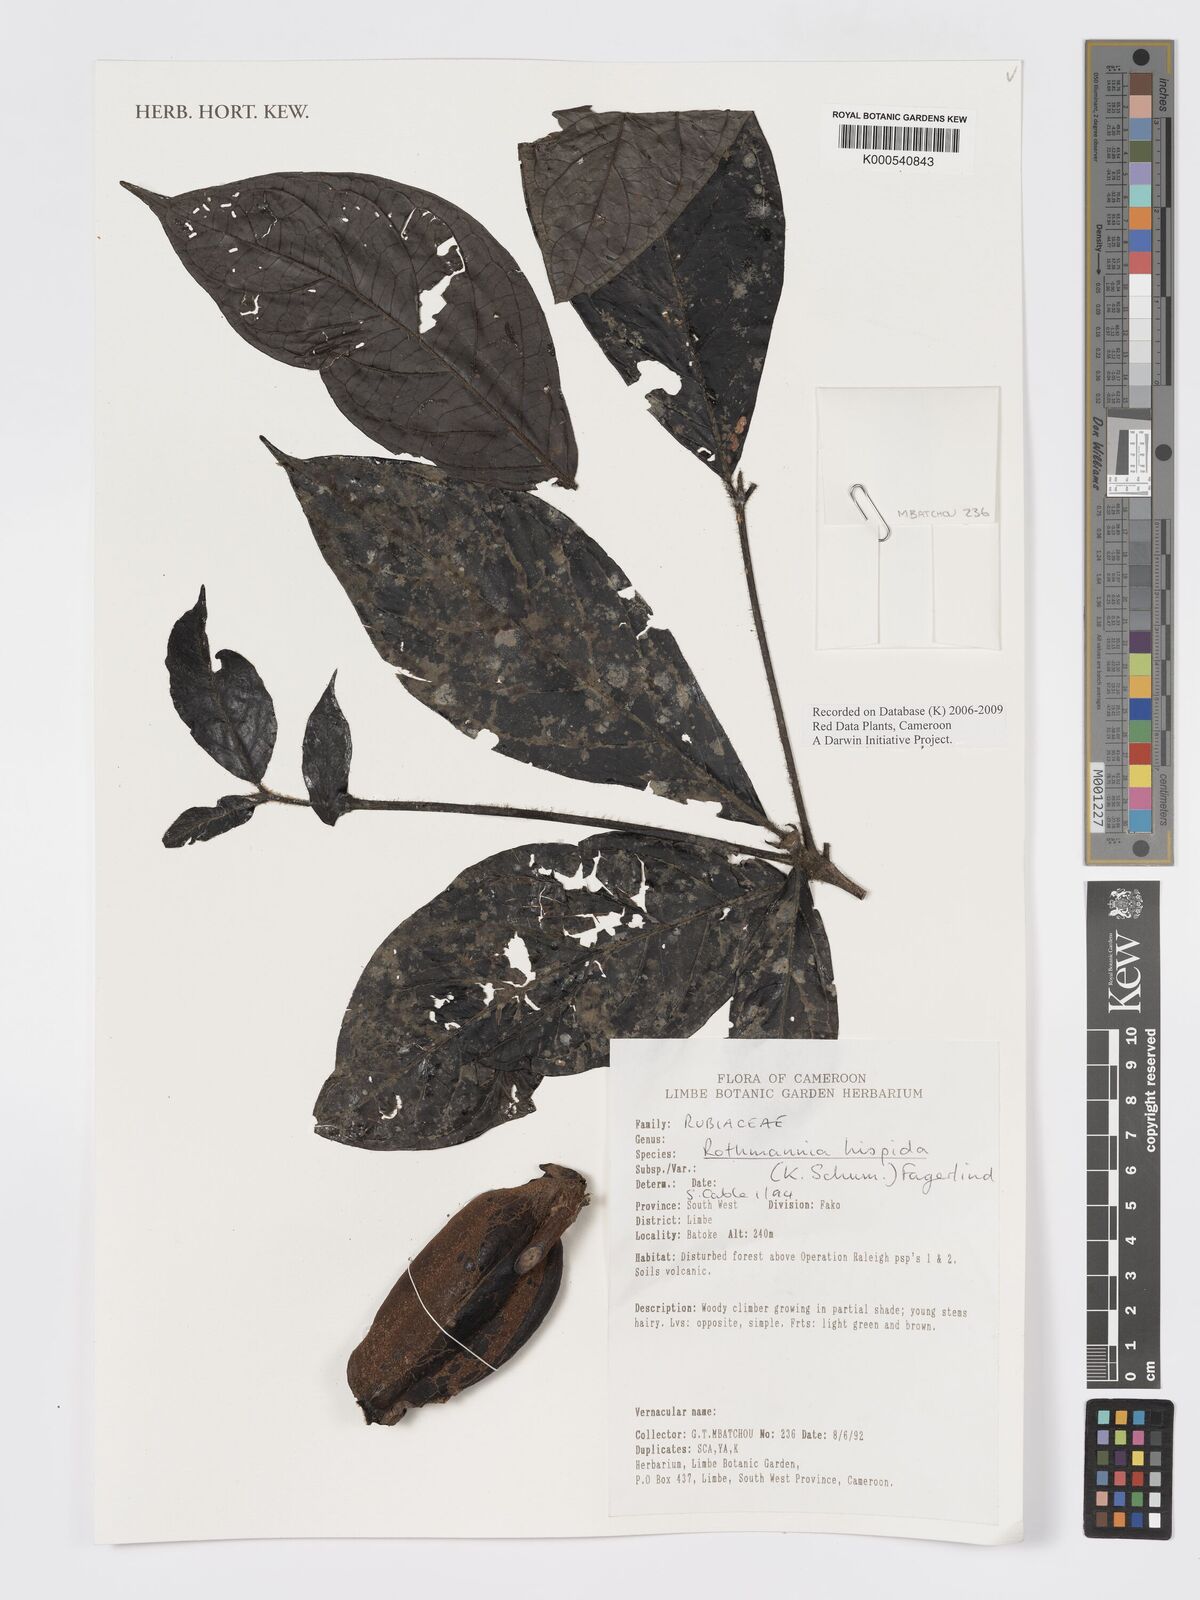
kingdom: Plantae
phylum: Tracheophyta
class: Magnoliopsida
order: Gentianales
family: Rubiaceae
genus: Rothmannia
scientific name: Rothmannia hispida
